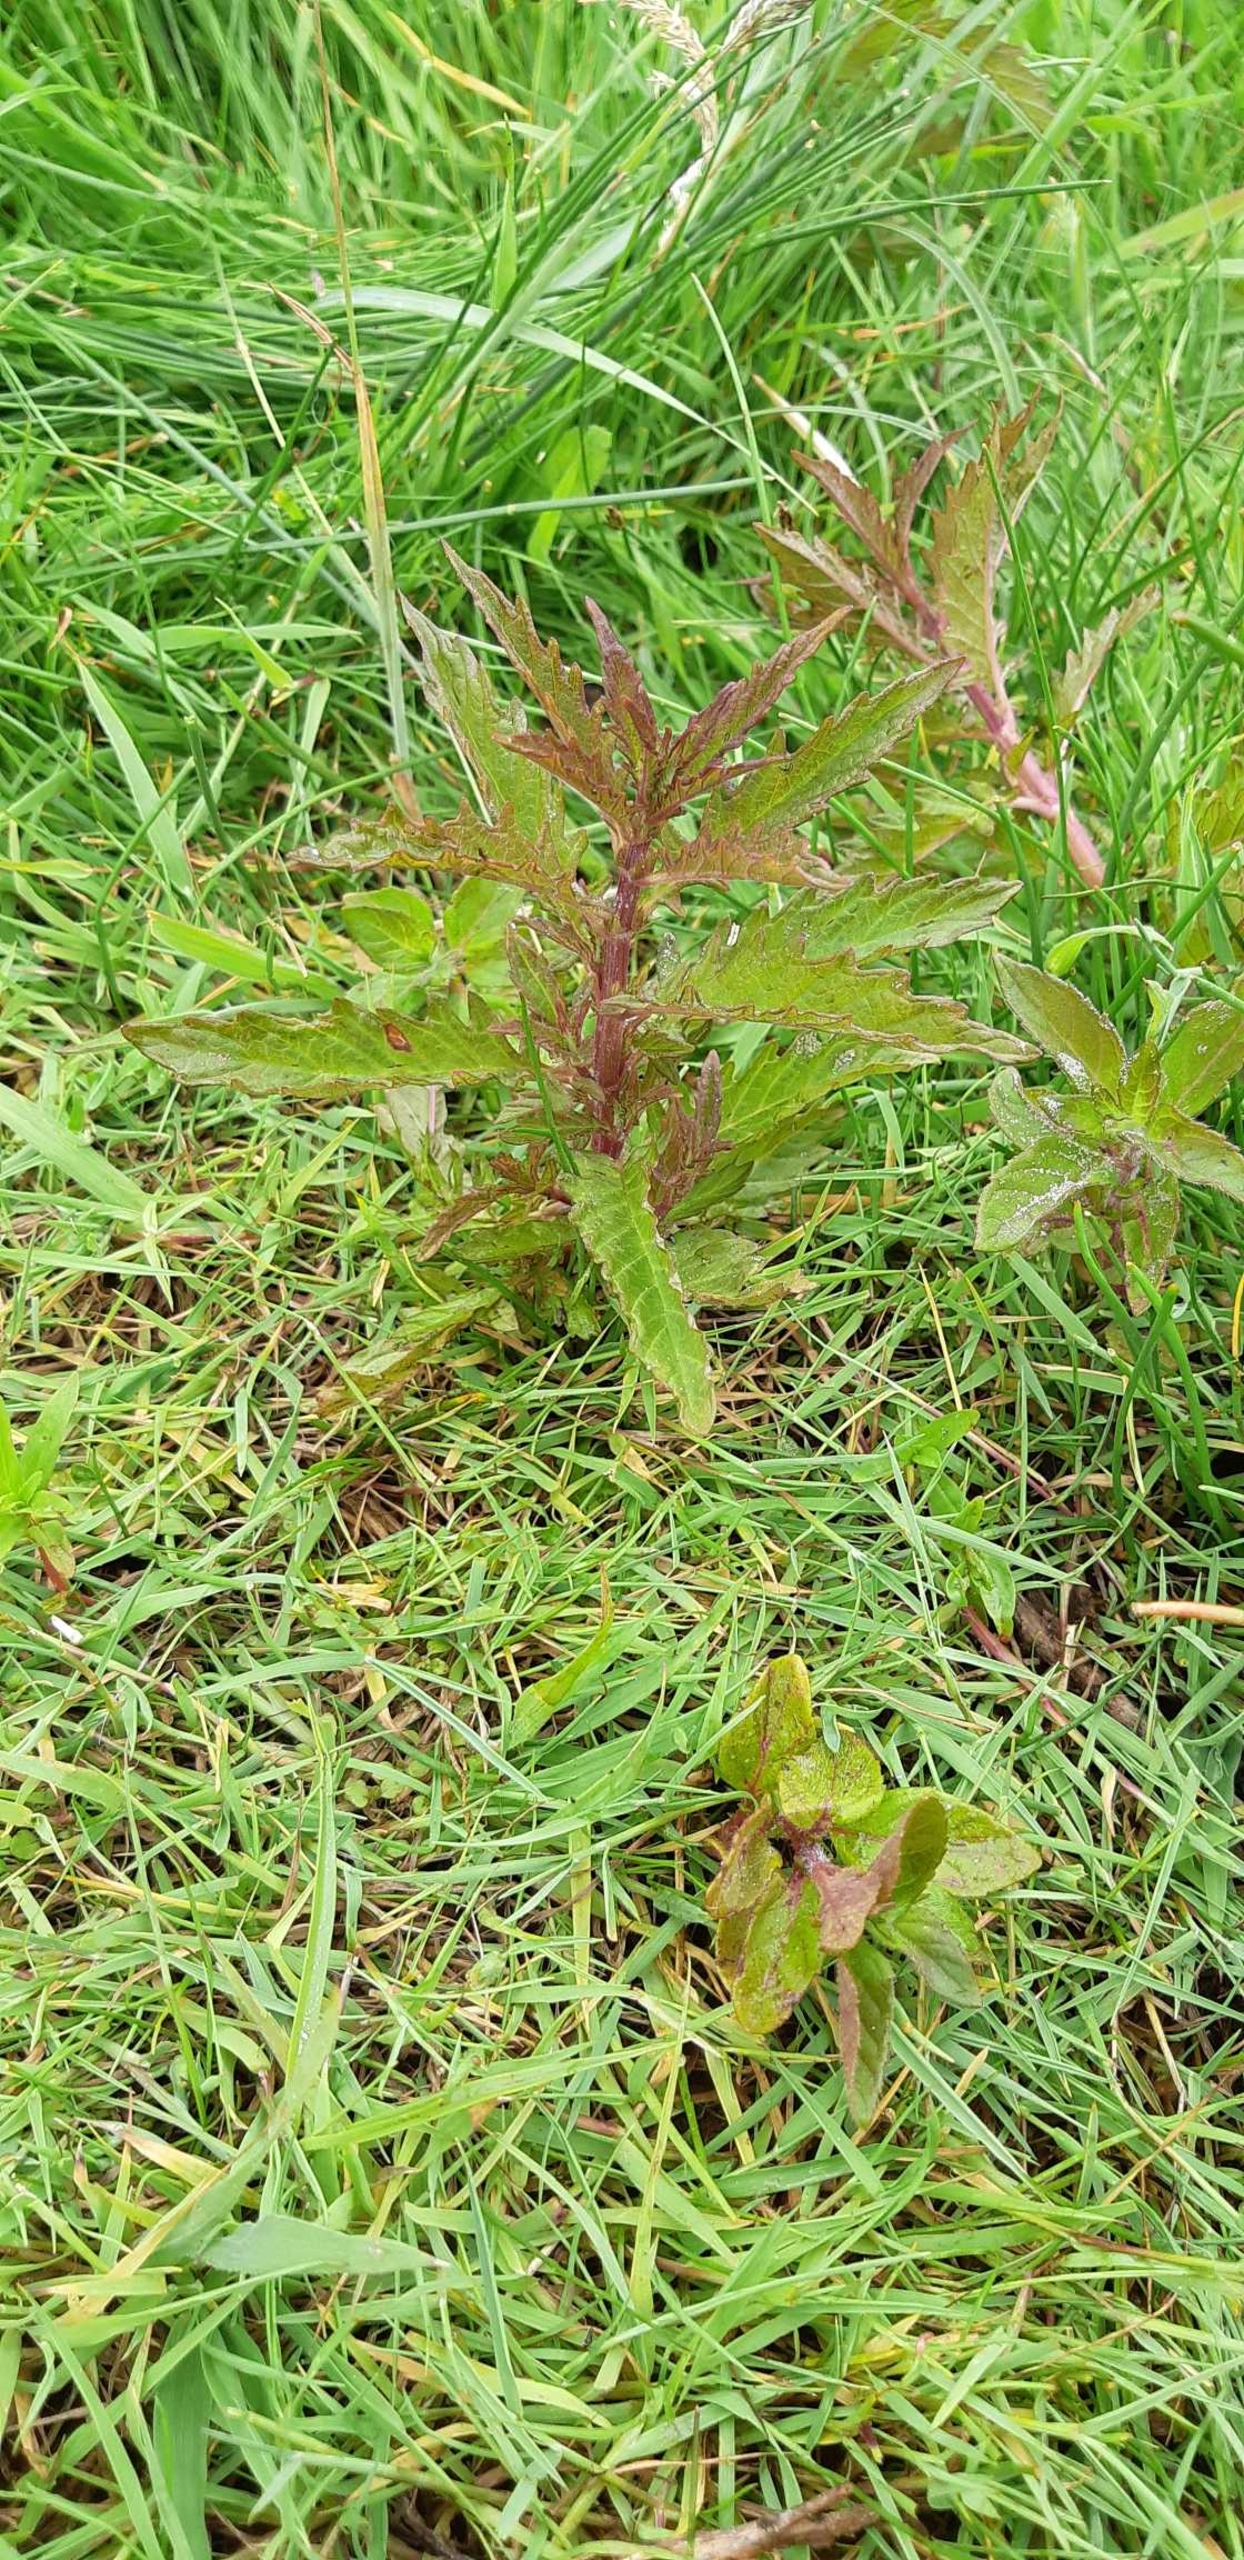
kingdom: Plantae
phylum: Tracheophyta
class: Magnoliopsida
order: Lamiales
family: Lamiaceae
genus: Lycopus
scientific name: Lycopus europaeus
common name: Sværtevæld
